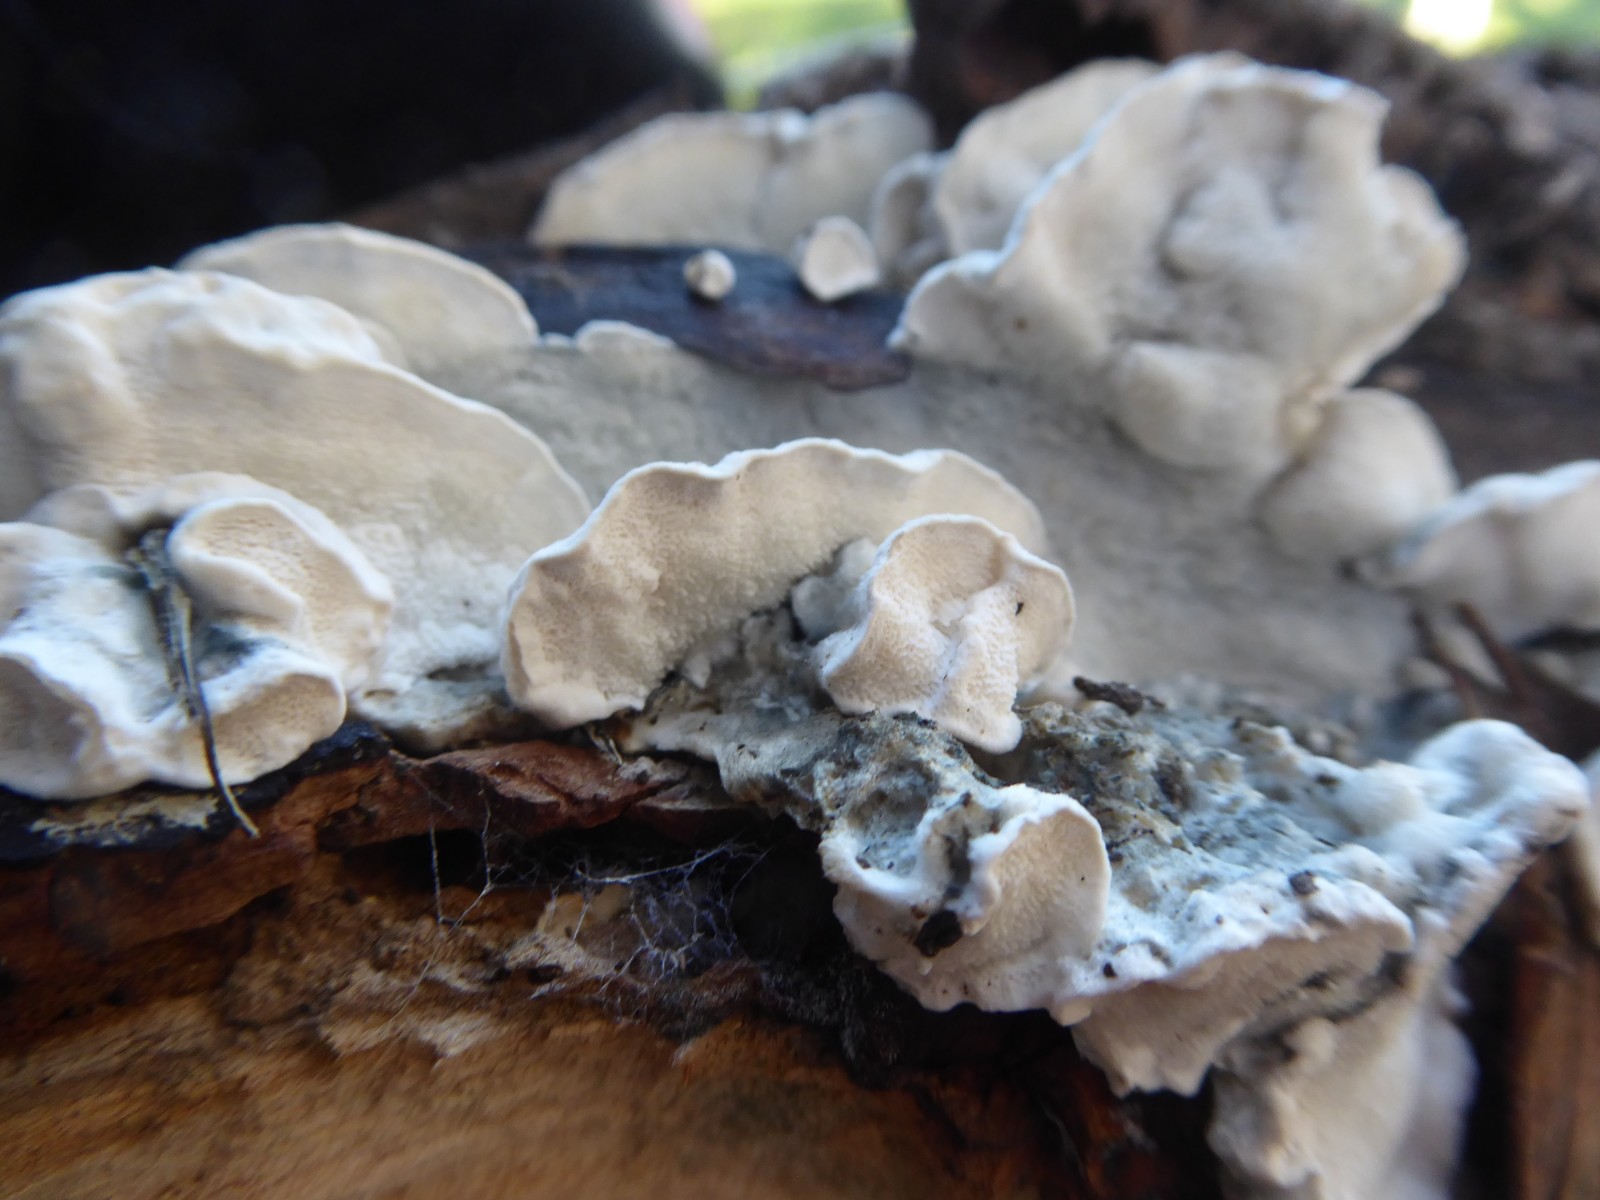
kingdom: Fungi
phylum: Basidiomycota
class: Agaricomycetes
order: Polyporales
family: Polyporaceae
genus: Cyanosporus
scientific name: Cyanosporus alni
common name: blegblå kødporesvamp
